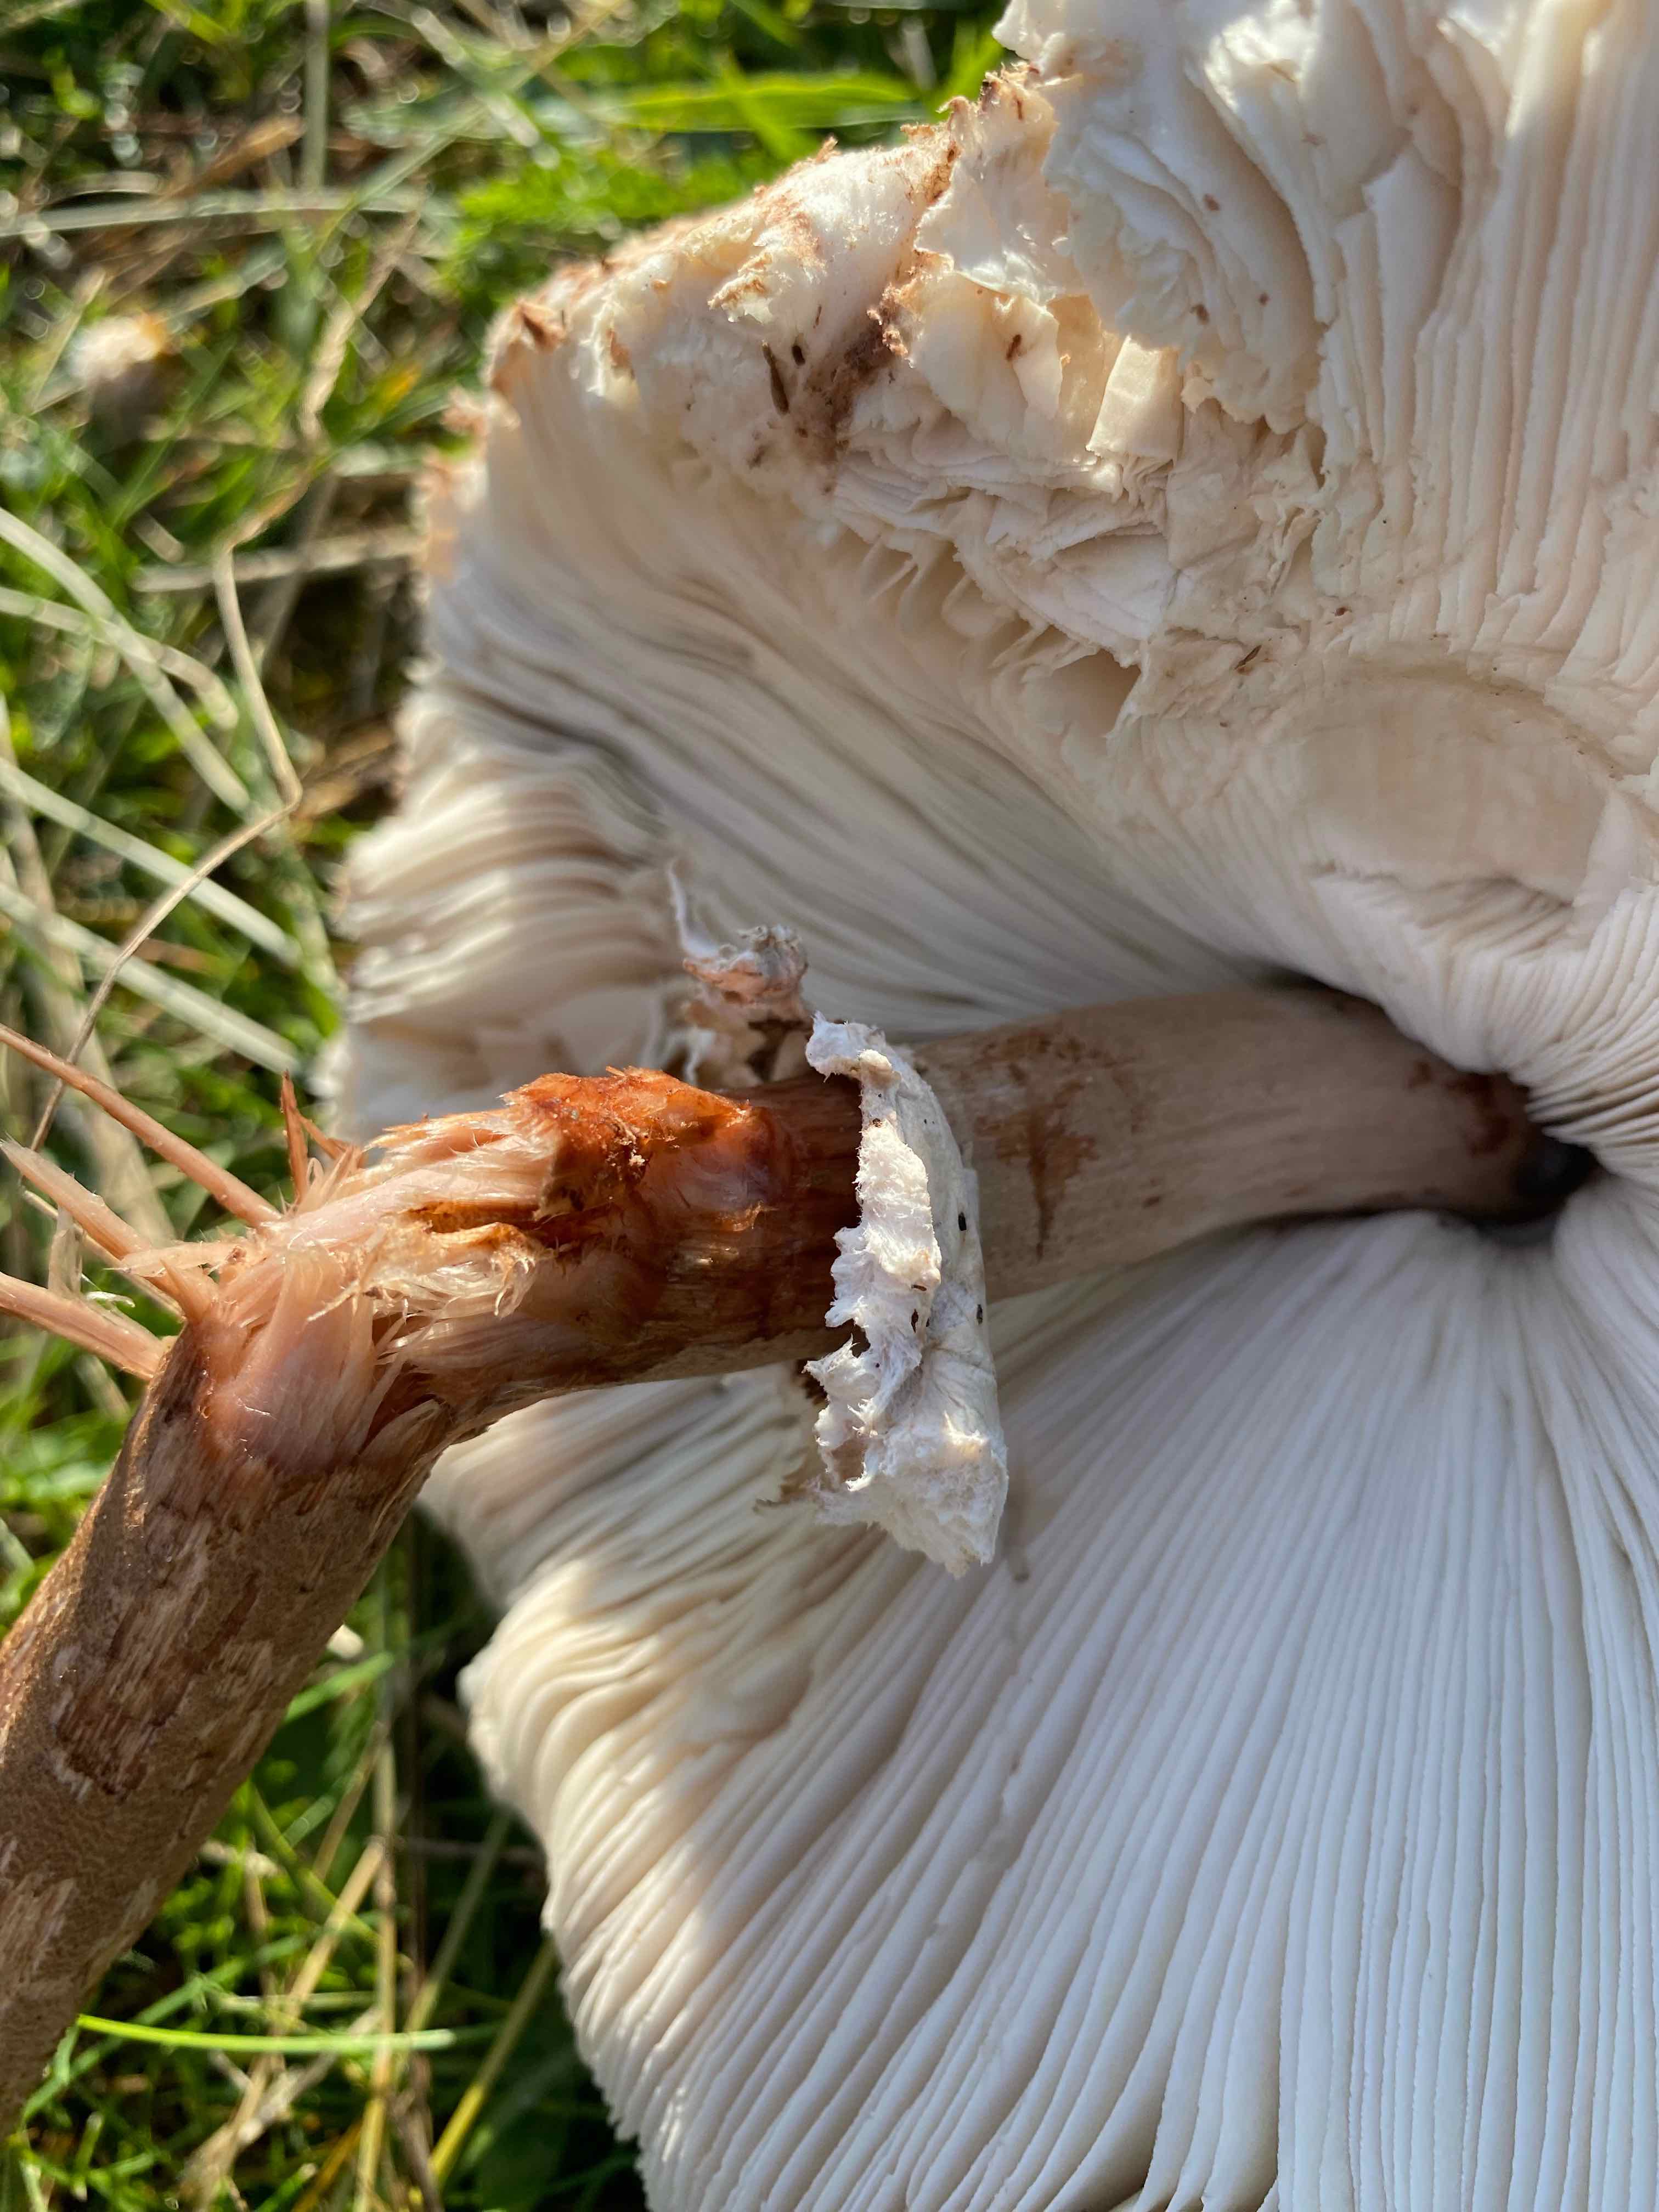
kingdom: Fungi
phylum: Basidiomycota
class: Agaricomycetes
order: Agaricales
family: Agaricaceae
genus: Macrolepiota
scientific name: Macrolepiota procera
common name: stor kæmpeparasolhat
